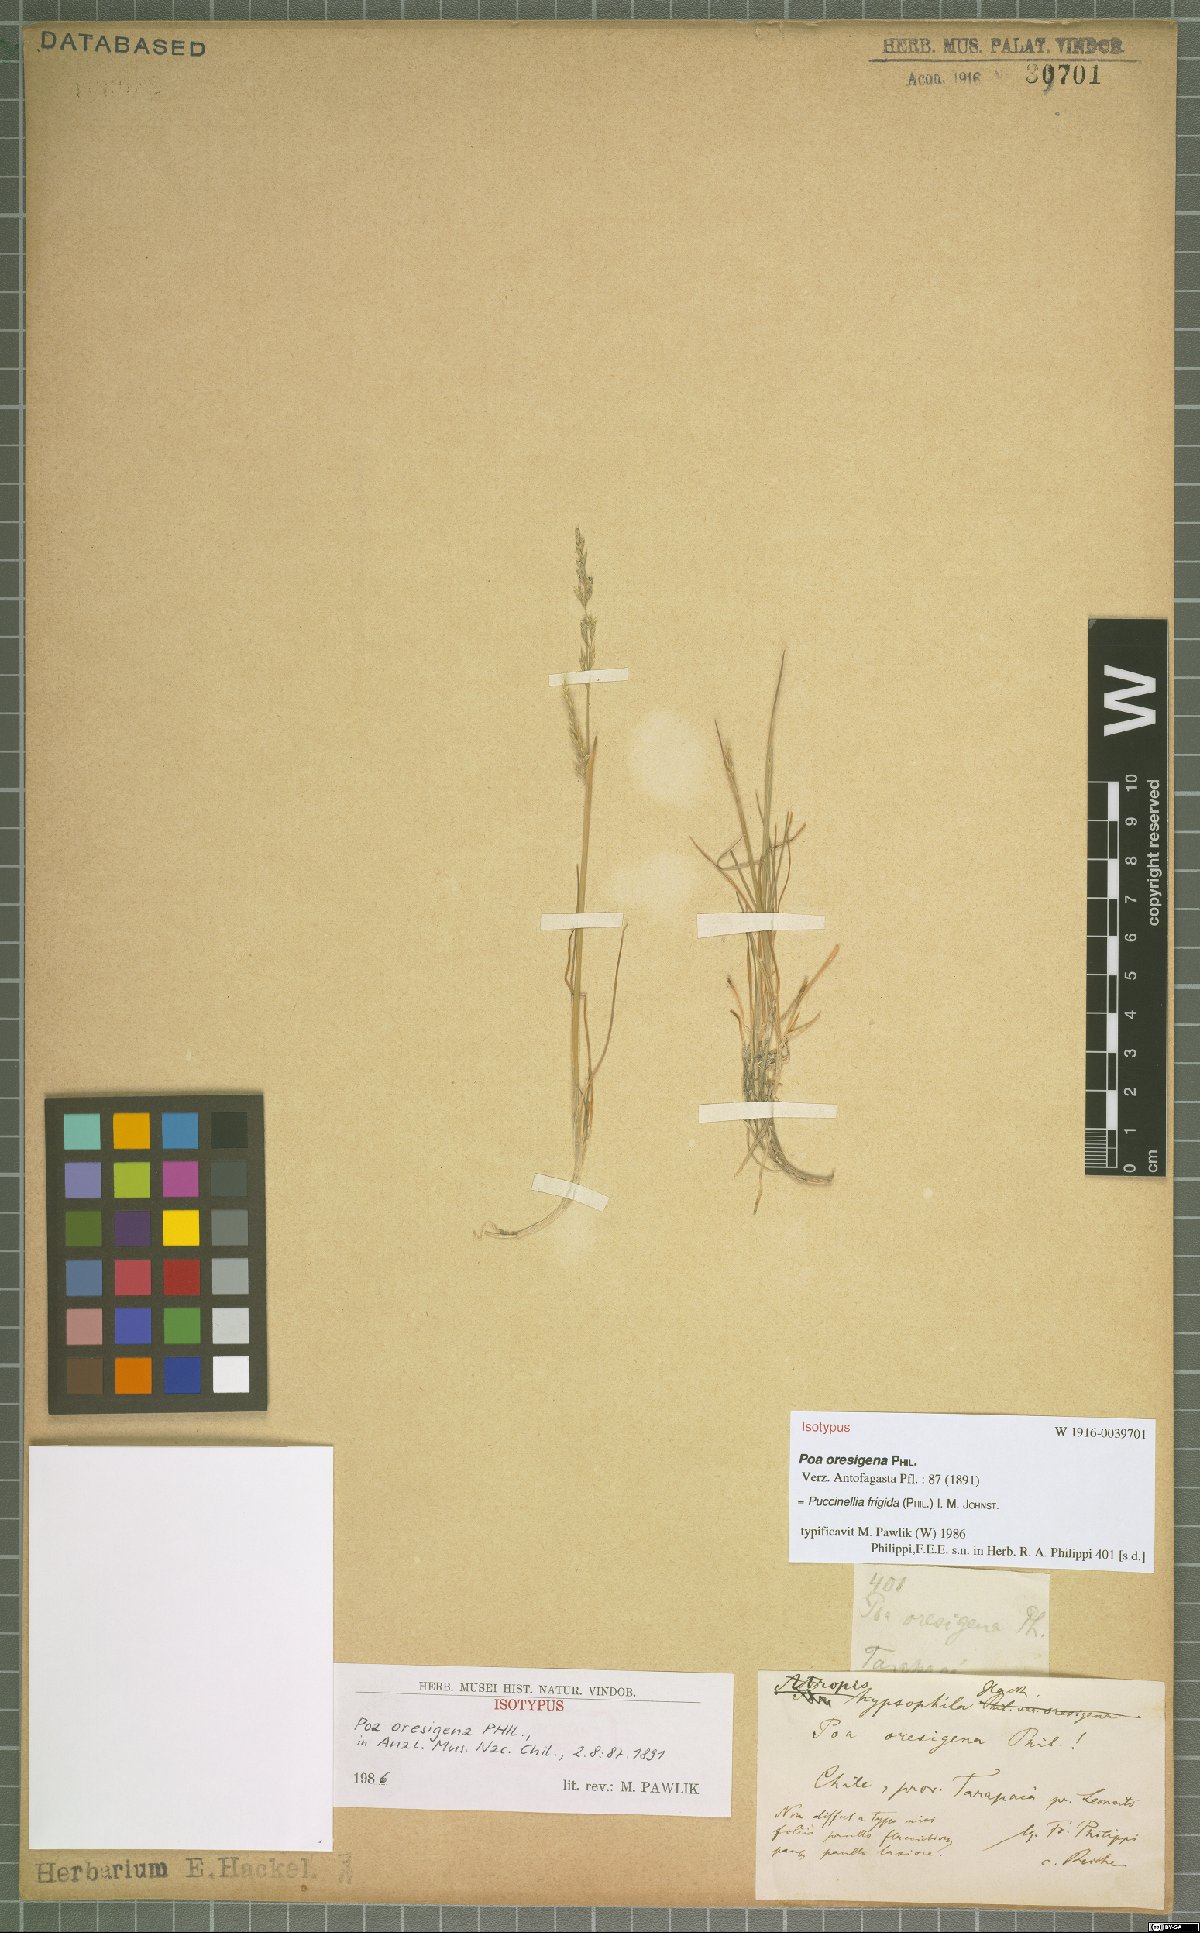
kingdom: Plantae
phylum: Tracheophyta
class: Liliopsida
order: Poales
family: Poaceae
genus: Puccinellia
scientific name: Puccinellia frigida
